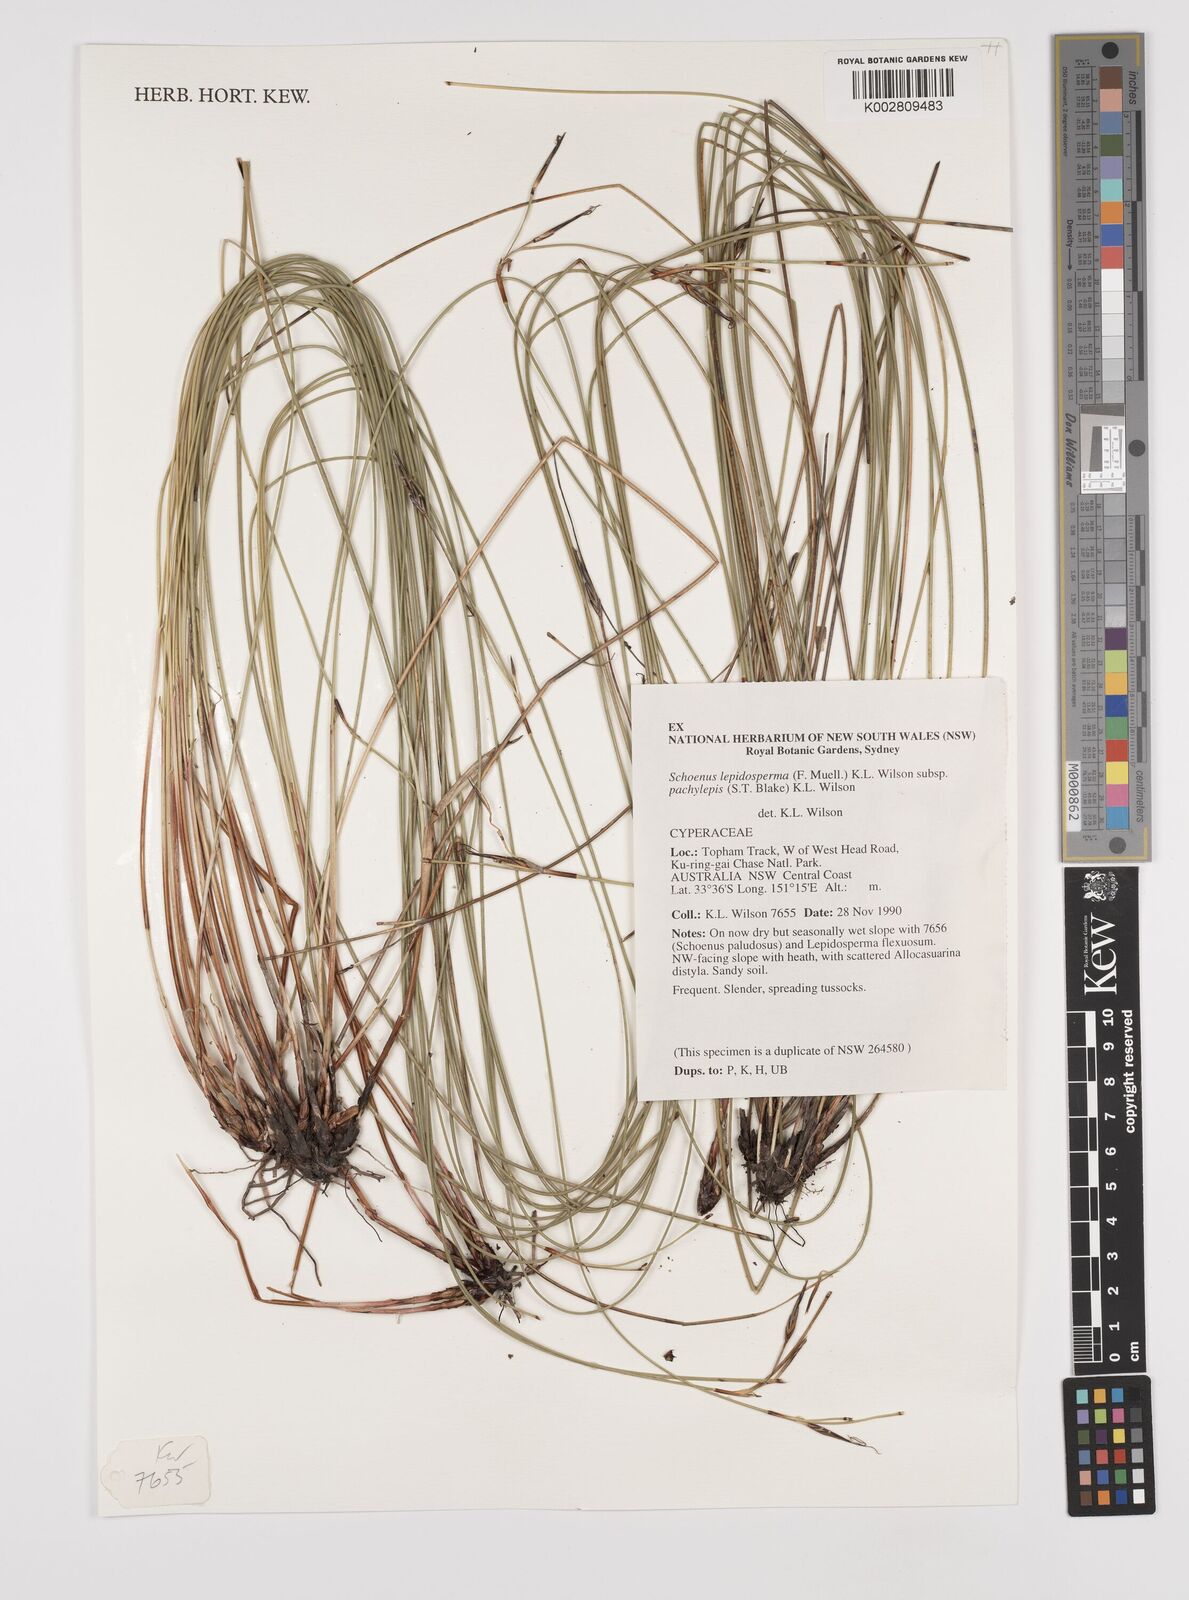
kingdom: Plantae
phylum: Tracheophyta
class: Liliopsida
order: Poales
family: Cyperaceae
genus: Schoenus
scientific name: Schoenus lepidosperma
